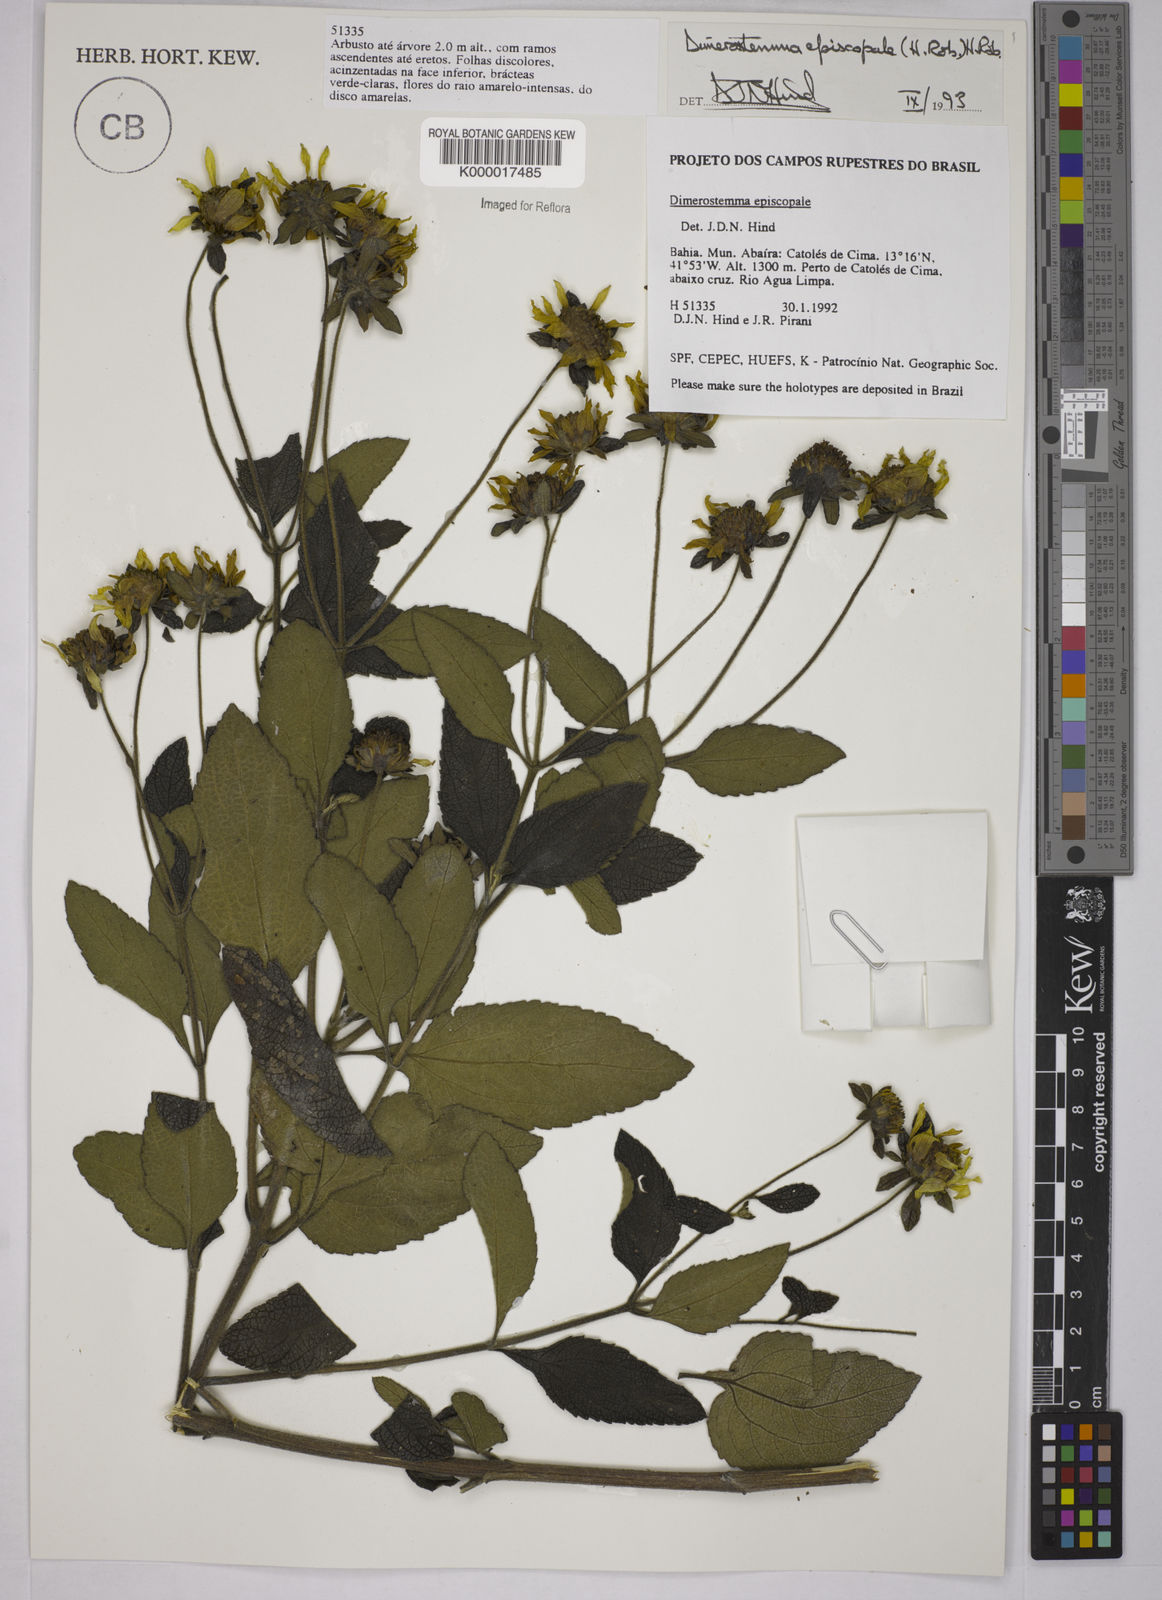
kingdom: Plantae
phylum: Tracheophyta
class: Magnoliopsida
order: Asterales
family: Asteraceae
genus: Dimerostemma
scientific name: Dimerostemma episcopale
